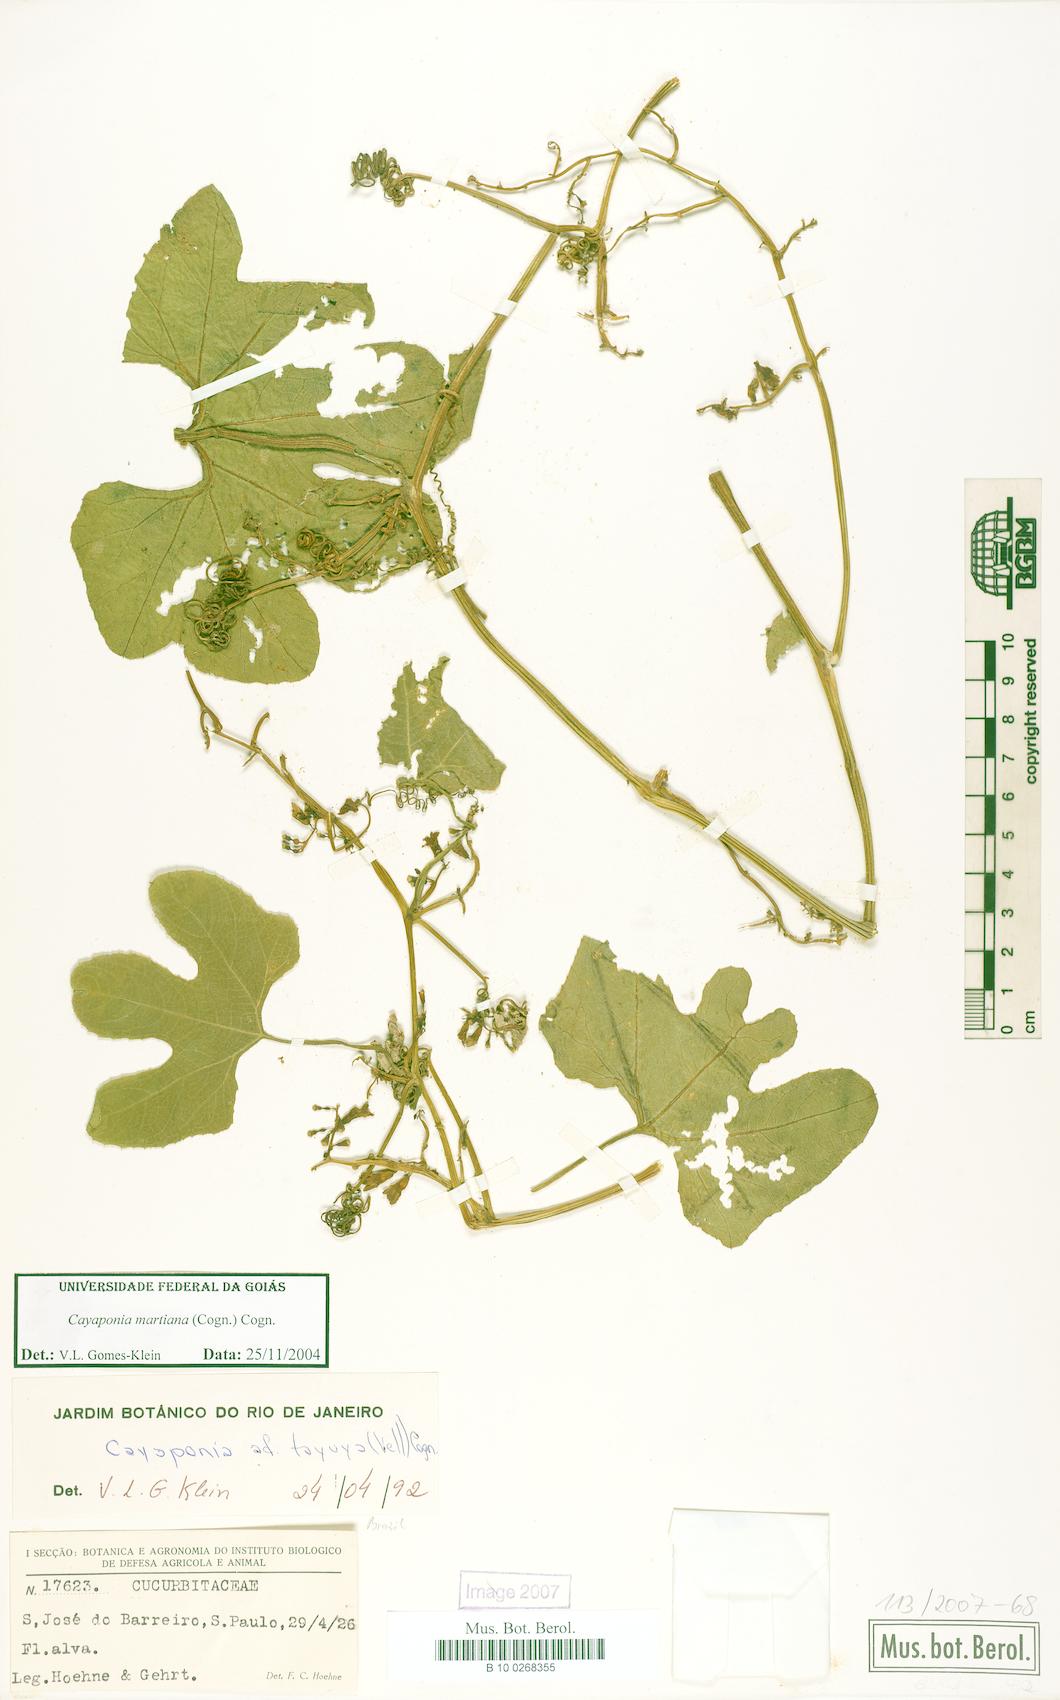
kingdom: Plantae
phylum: Tracheophyta
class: Magnoliopsida
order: Cucurbitales
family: Cucurbitaceae
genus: Cayaponia
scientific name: Cayaponia martiana
